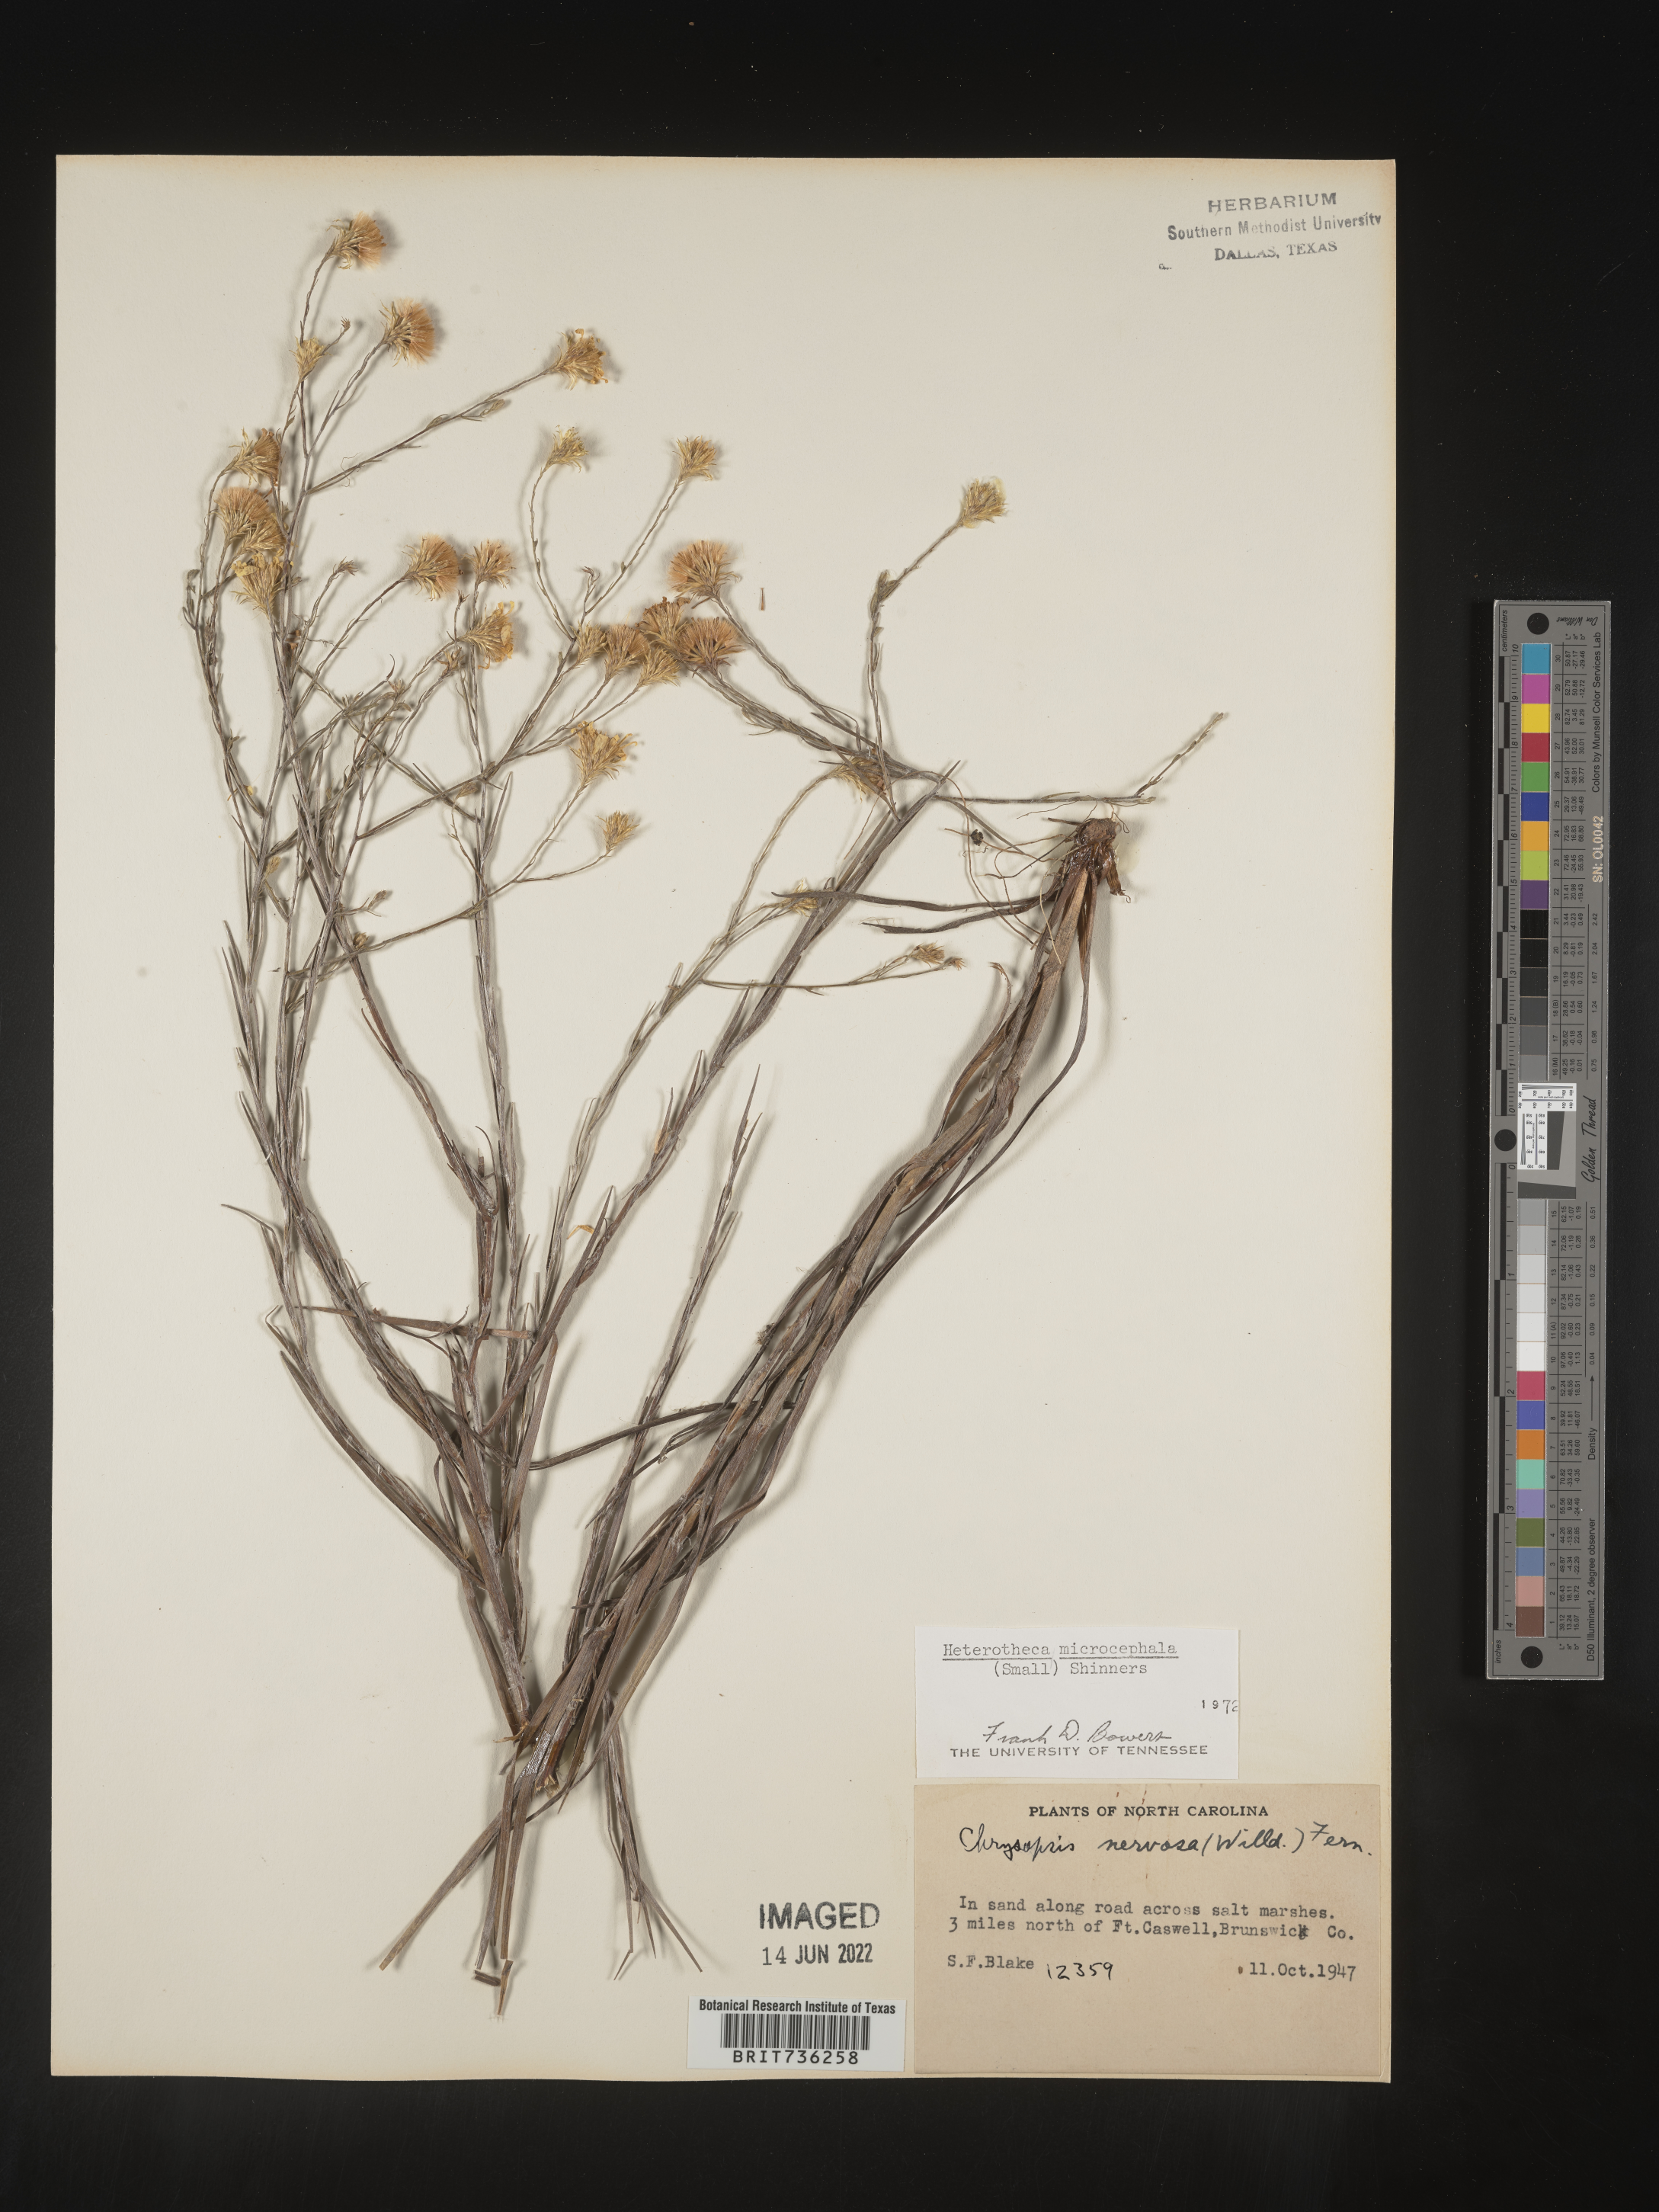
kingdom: Plantae
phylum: Tracheophyta
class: Magnoliopsida
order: Asterales
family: Asteraceae
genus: Pityopsis
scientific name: Pityopsis graminifolia
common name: Grass-leaf golden-aster
